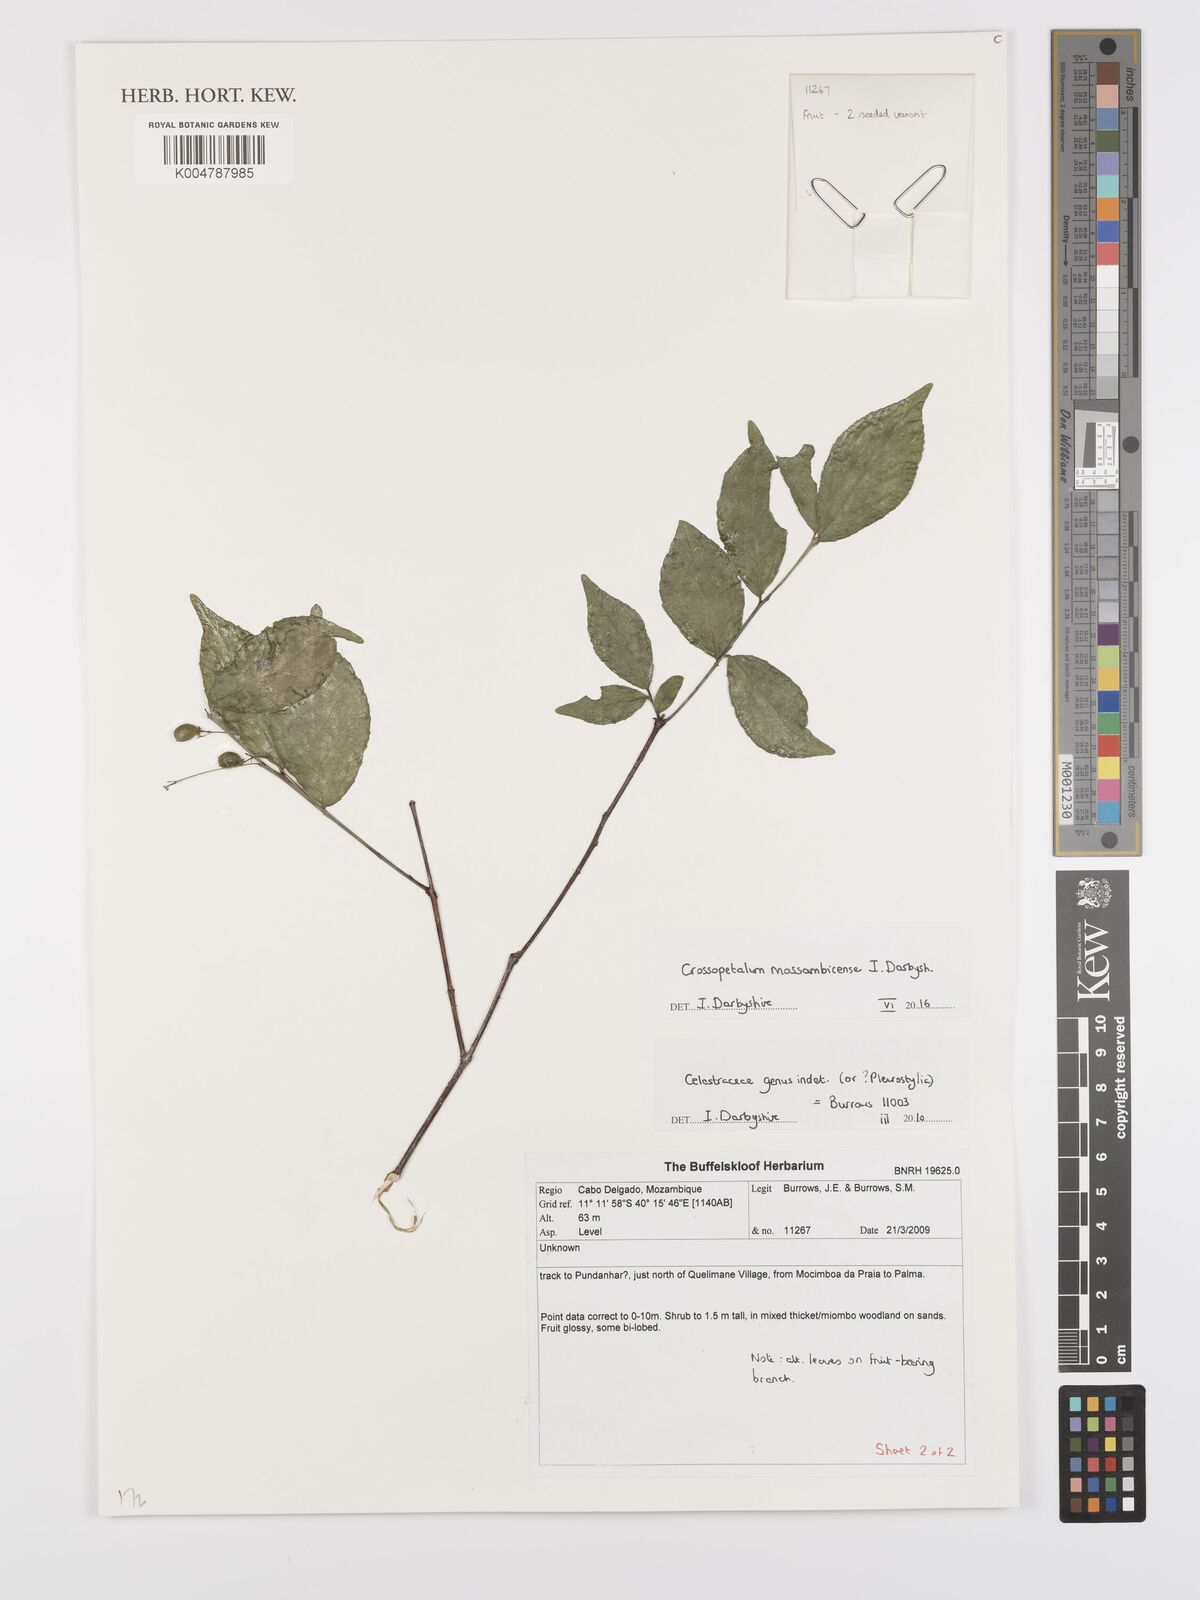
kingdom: Plantae
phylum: Tracheophyta
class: Magnoliopsida
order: Celastrales
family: Celastraceae
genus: Crossopetalum
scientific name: Crossopetalum mossambicense
